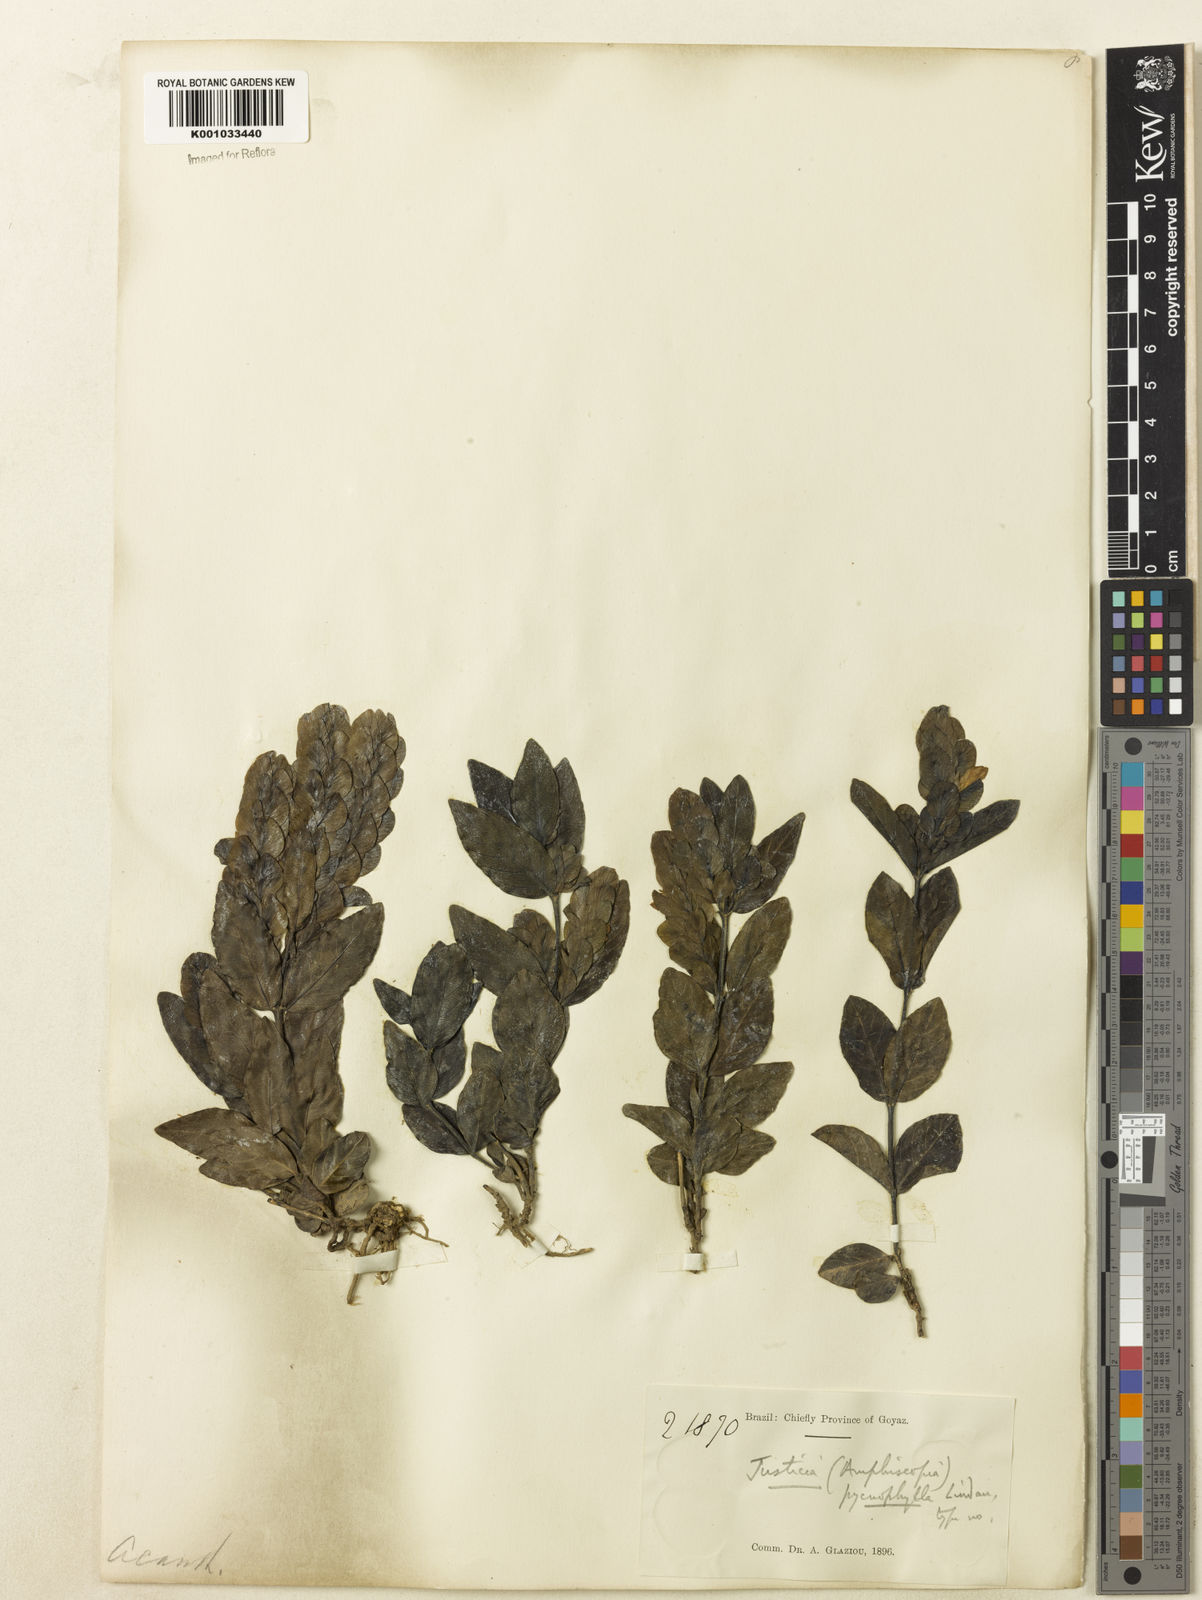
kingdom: Plantae
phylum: Tracheophyta
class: Magnoliopsida
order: Lamiales
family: Acanthaceae
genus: Justicia
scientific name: Justicia pycnophylla
